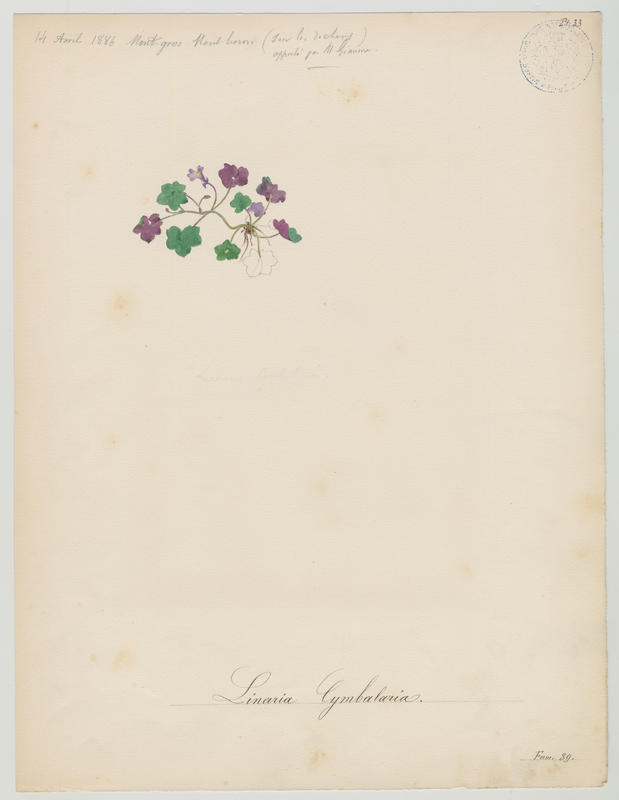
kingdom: Plantae
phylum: Tracheophyta
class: Magnoliopsida
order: Lamiales
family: Plantaginaceae
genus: Cymbalaria
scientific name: Cymbalaria muralis
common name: Ivy-leaved toadflax
